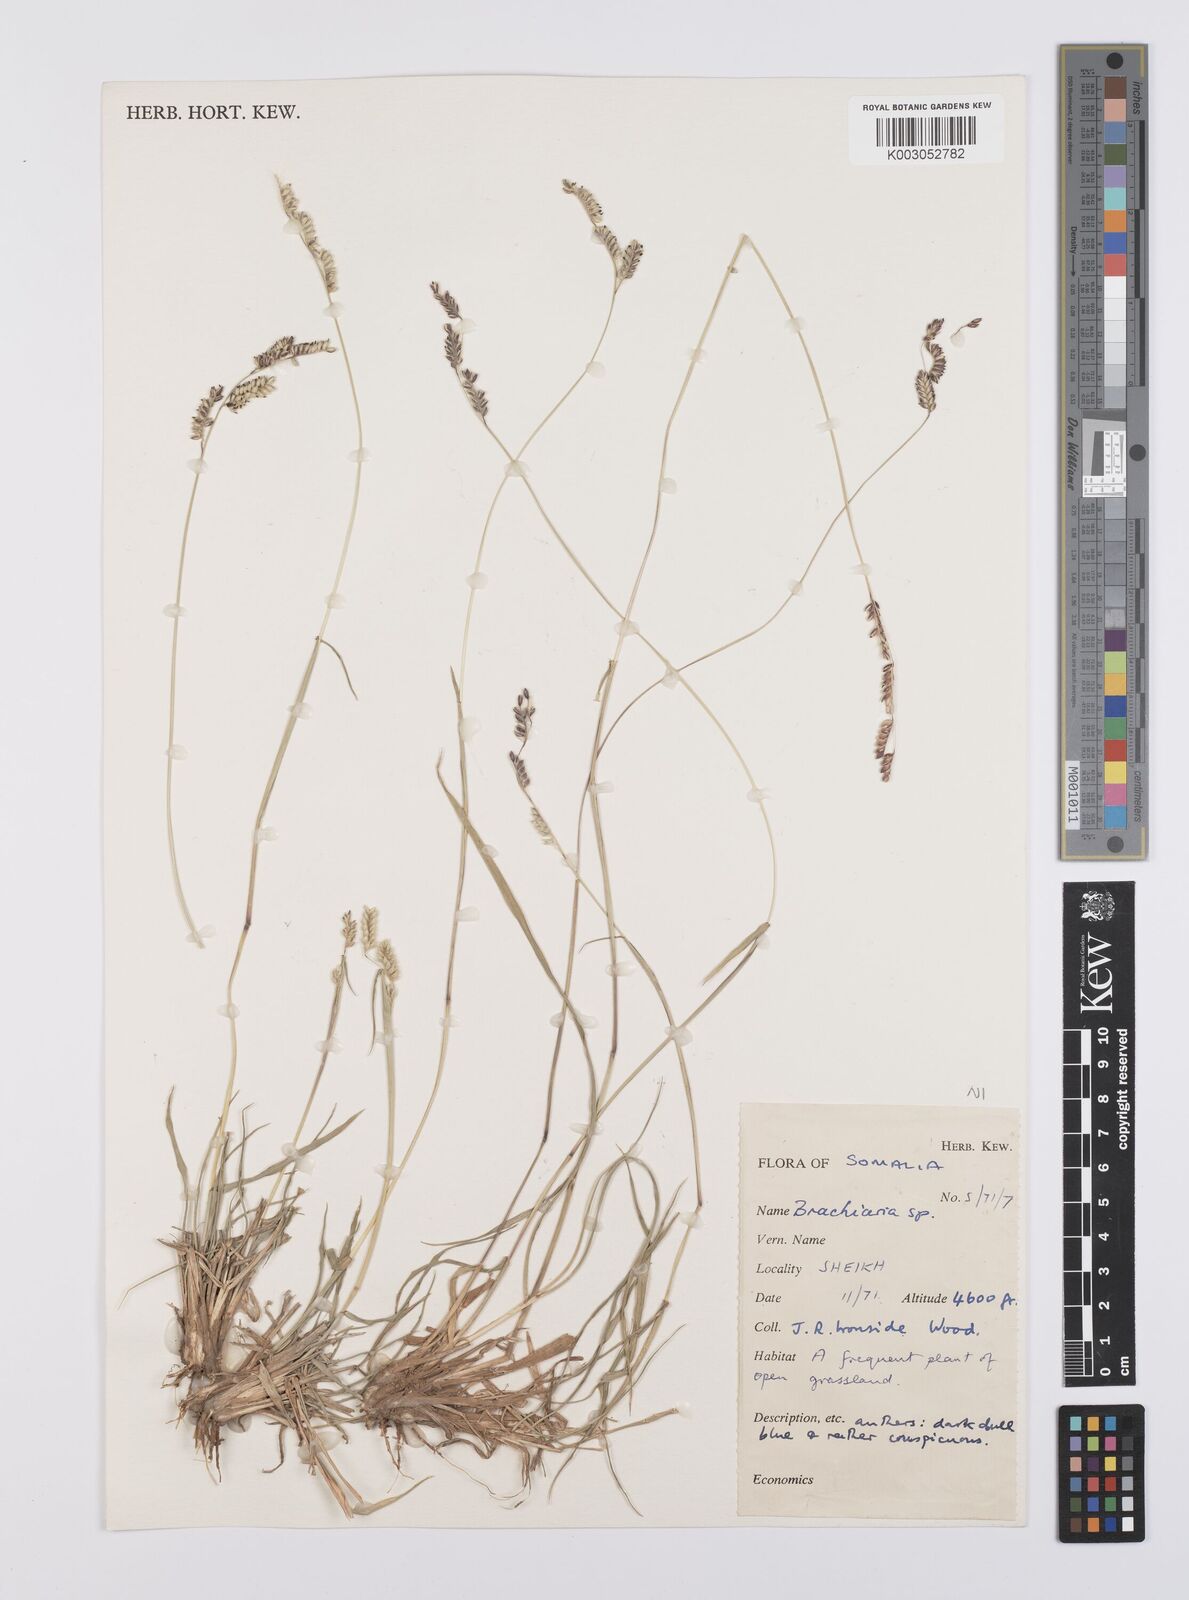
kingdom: Plantae
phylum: Tracheophyta
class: Liliopsida
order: Poales
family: Poaceae
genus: Urochloa
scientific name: Urochloa lachnantha
